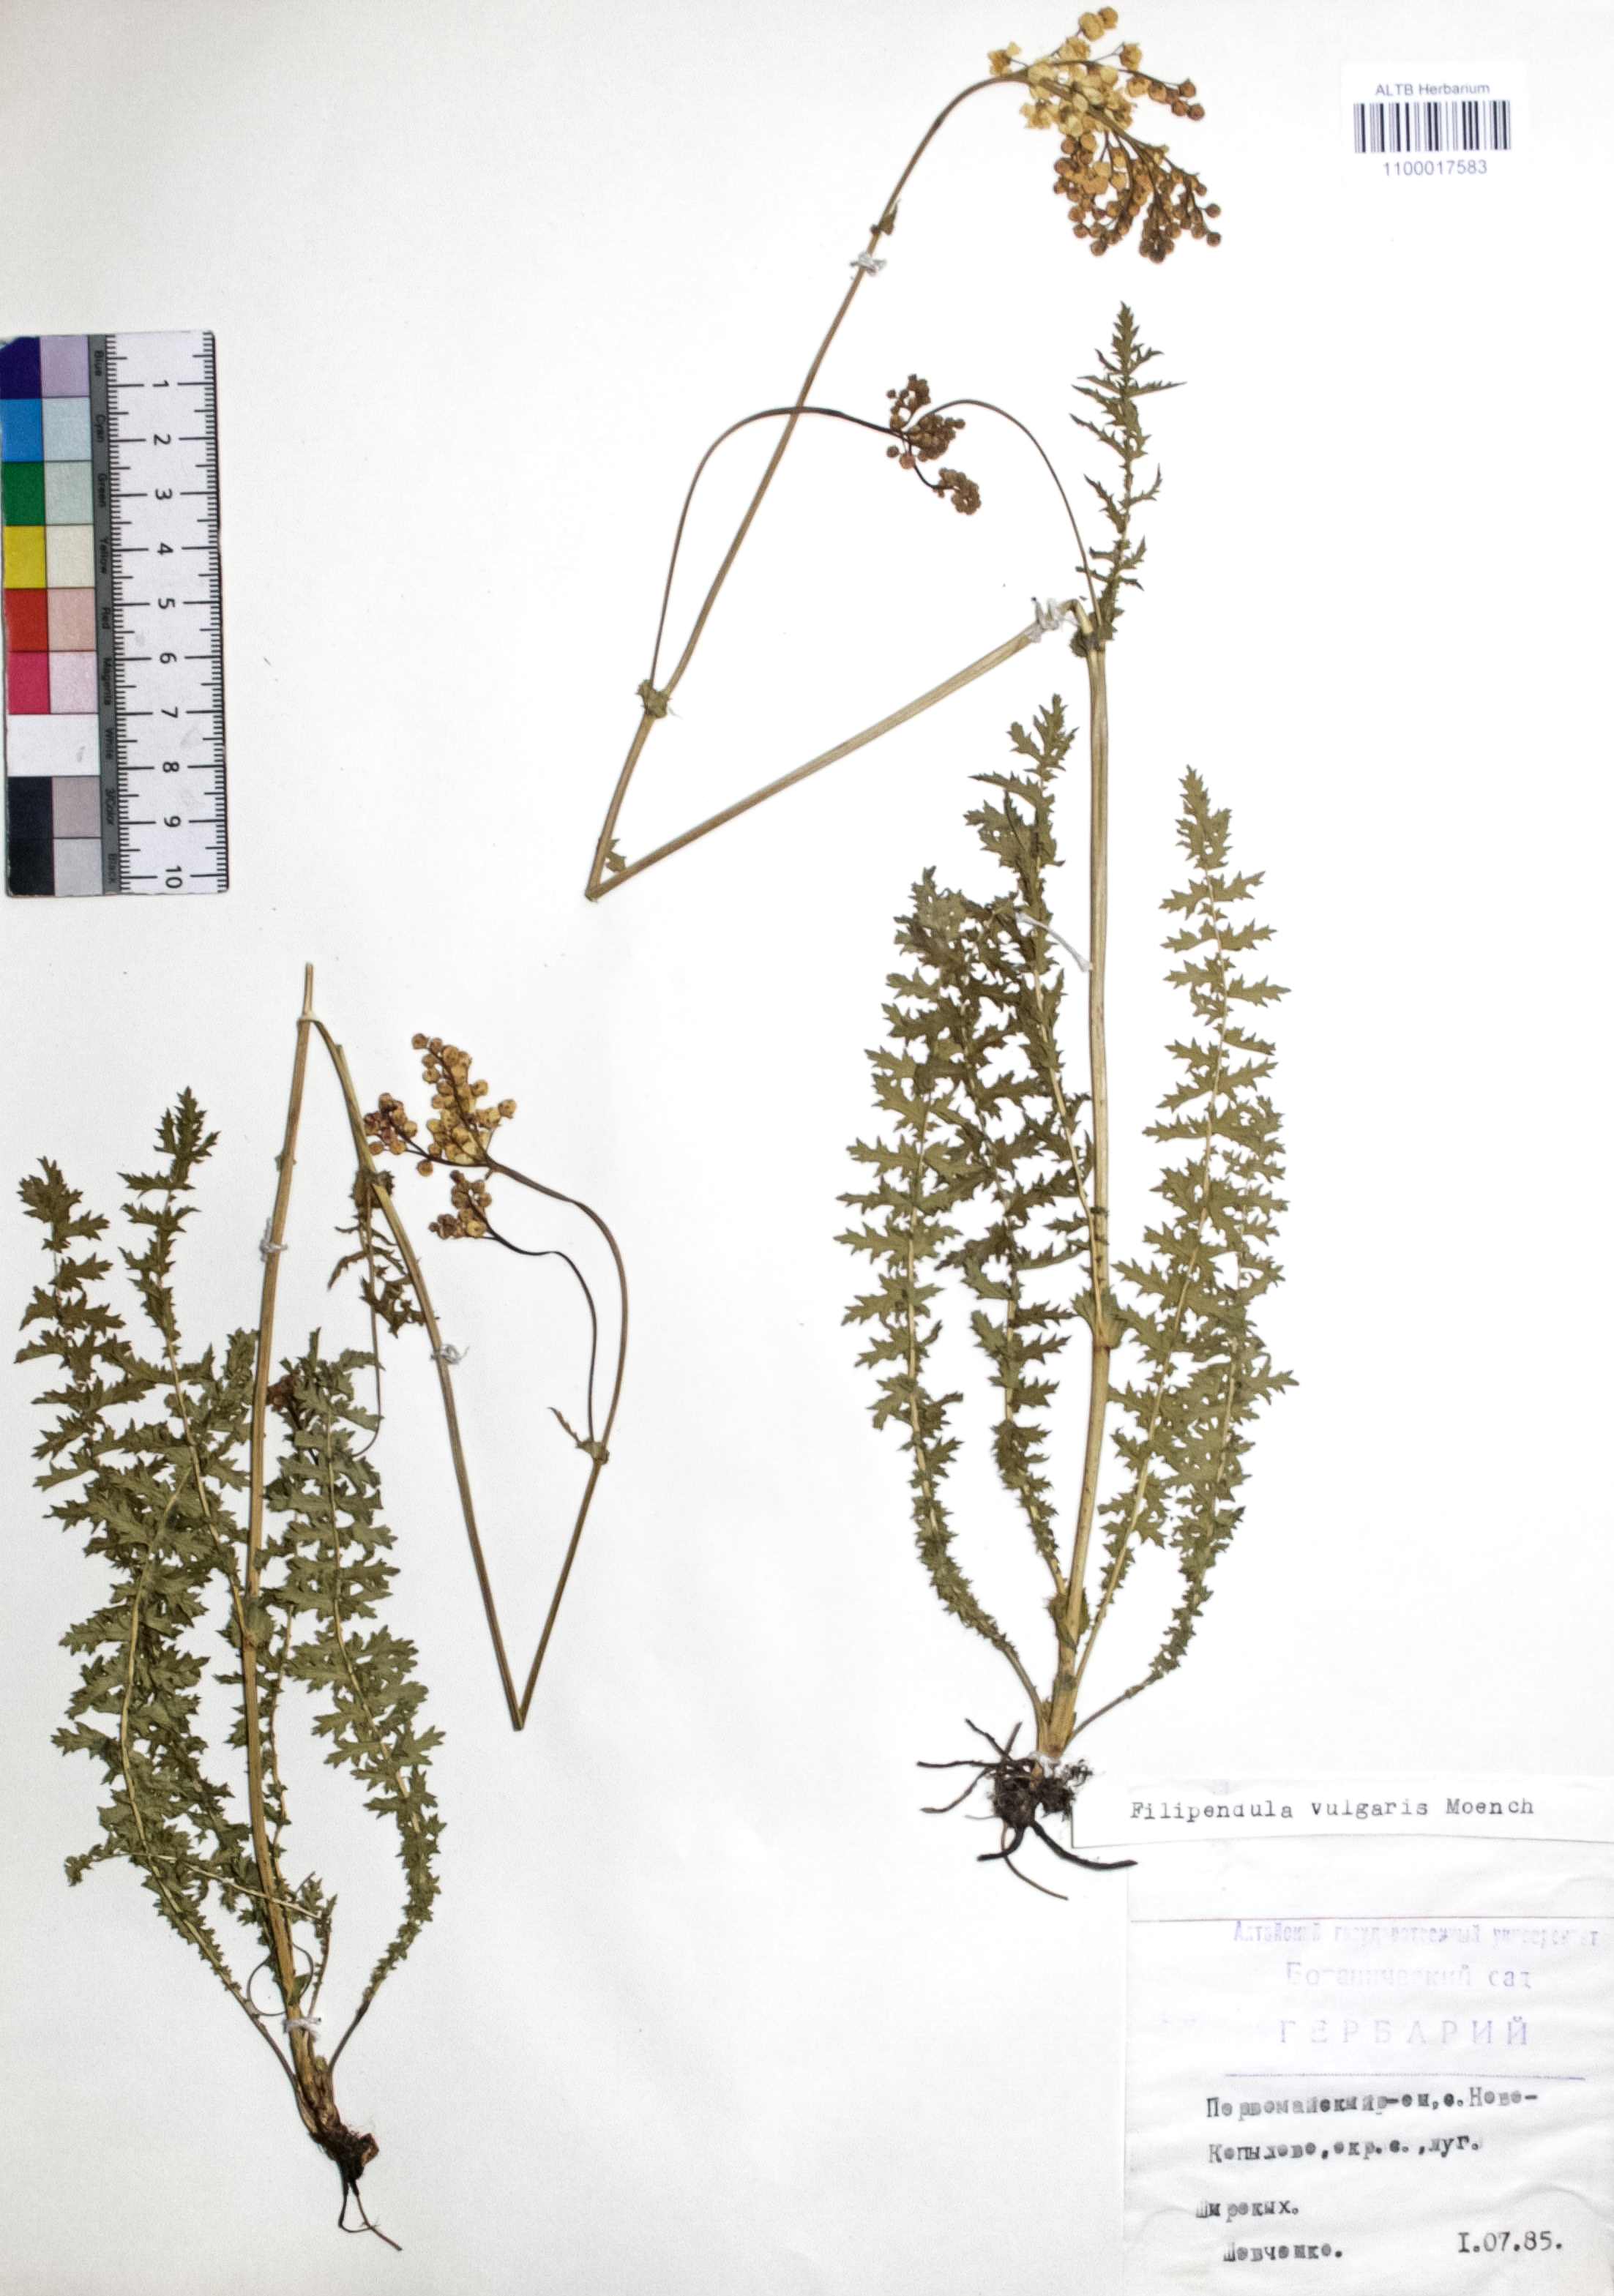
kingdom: Plantae
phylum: Tracheophyta
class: Magnoliopsida
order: Rosales
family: Rosaceae
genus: Filipendula
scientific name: Filipendula vulgaris
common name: Dropwort
